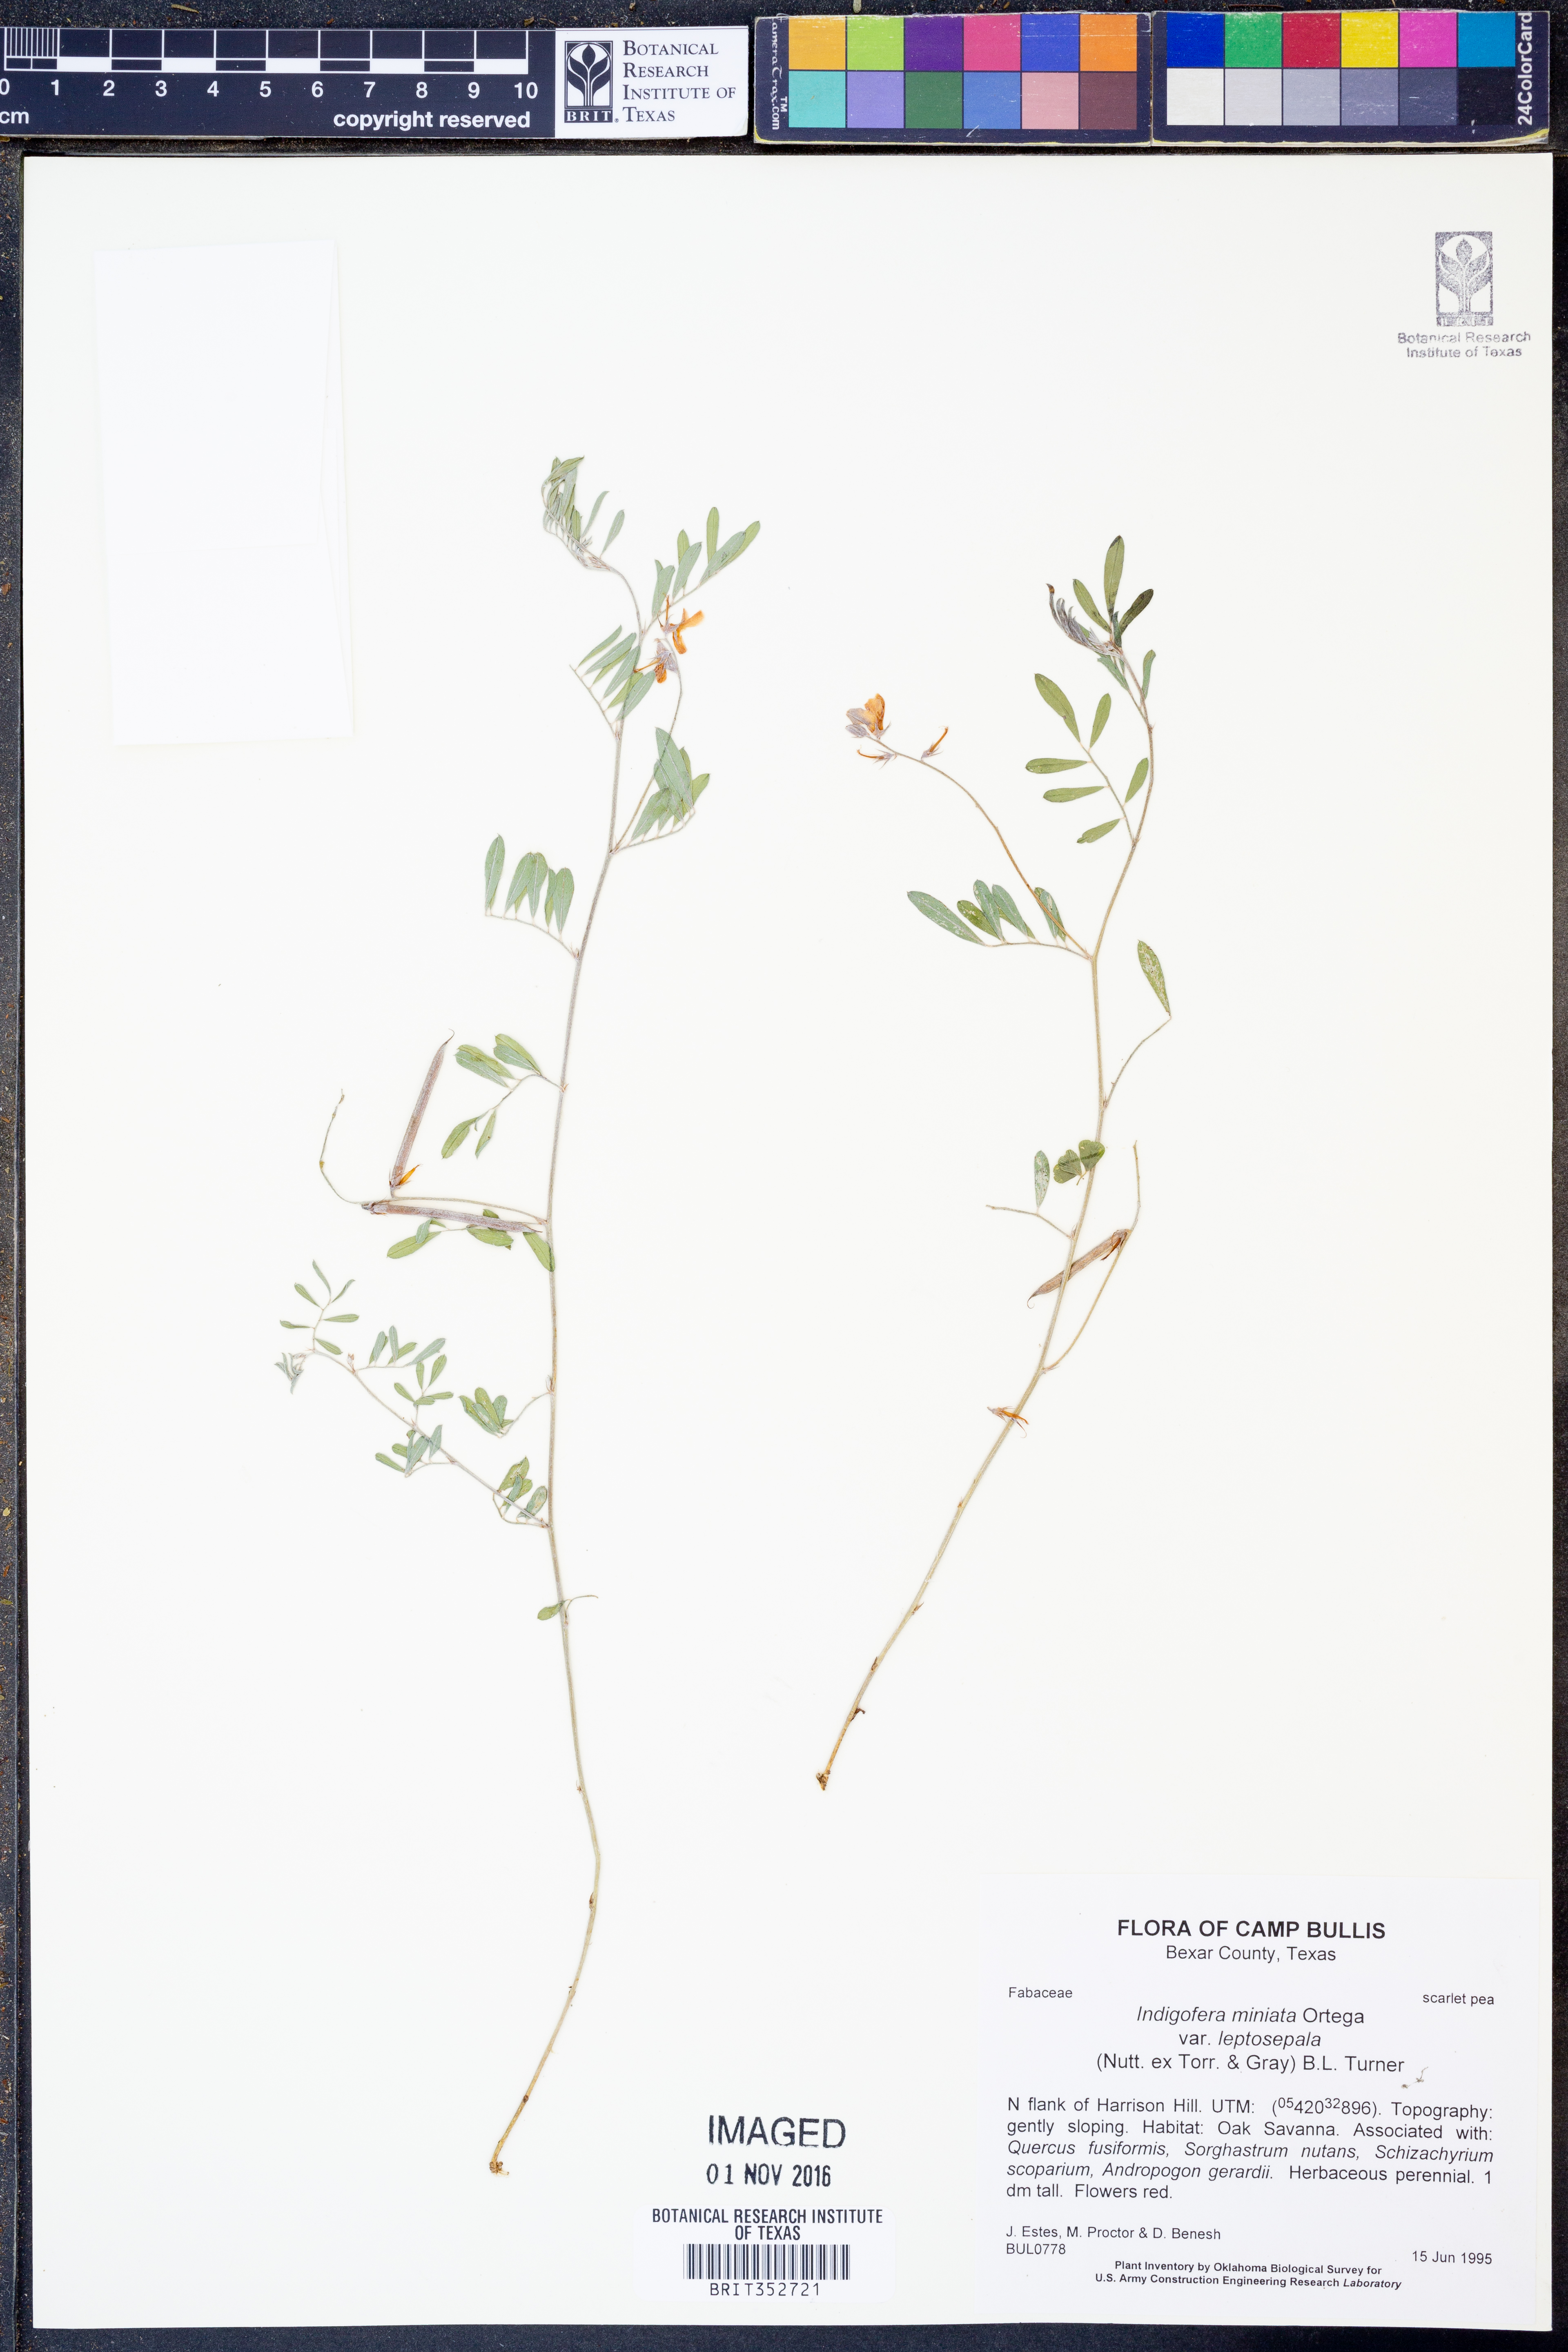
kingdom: Plantae
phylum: Tracheophyta
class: Magnoliopsida
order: Fabales
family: Fabaceae
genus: Indigofera
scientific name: Indigofera miniata
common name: Coast indigo
